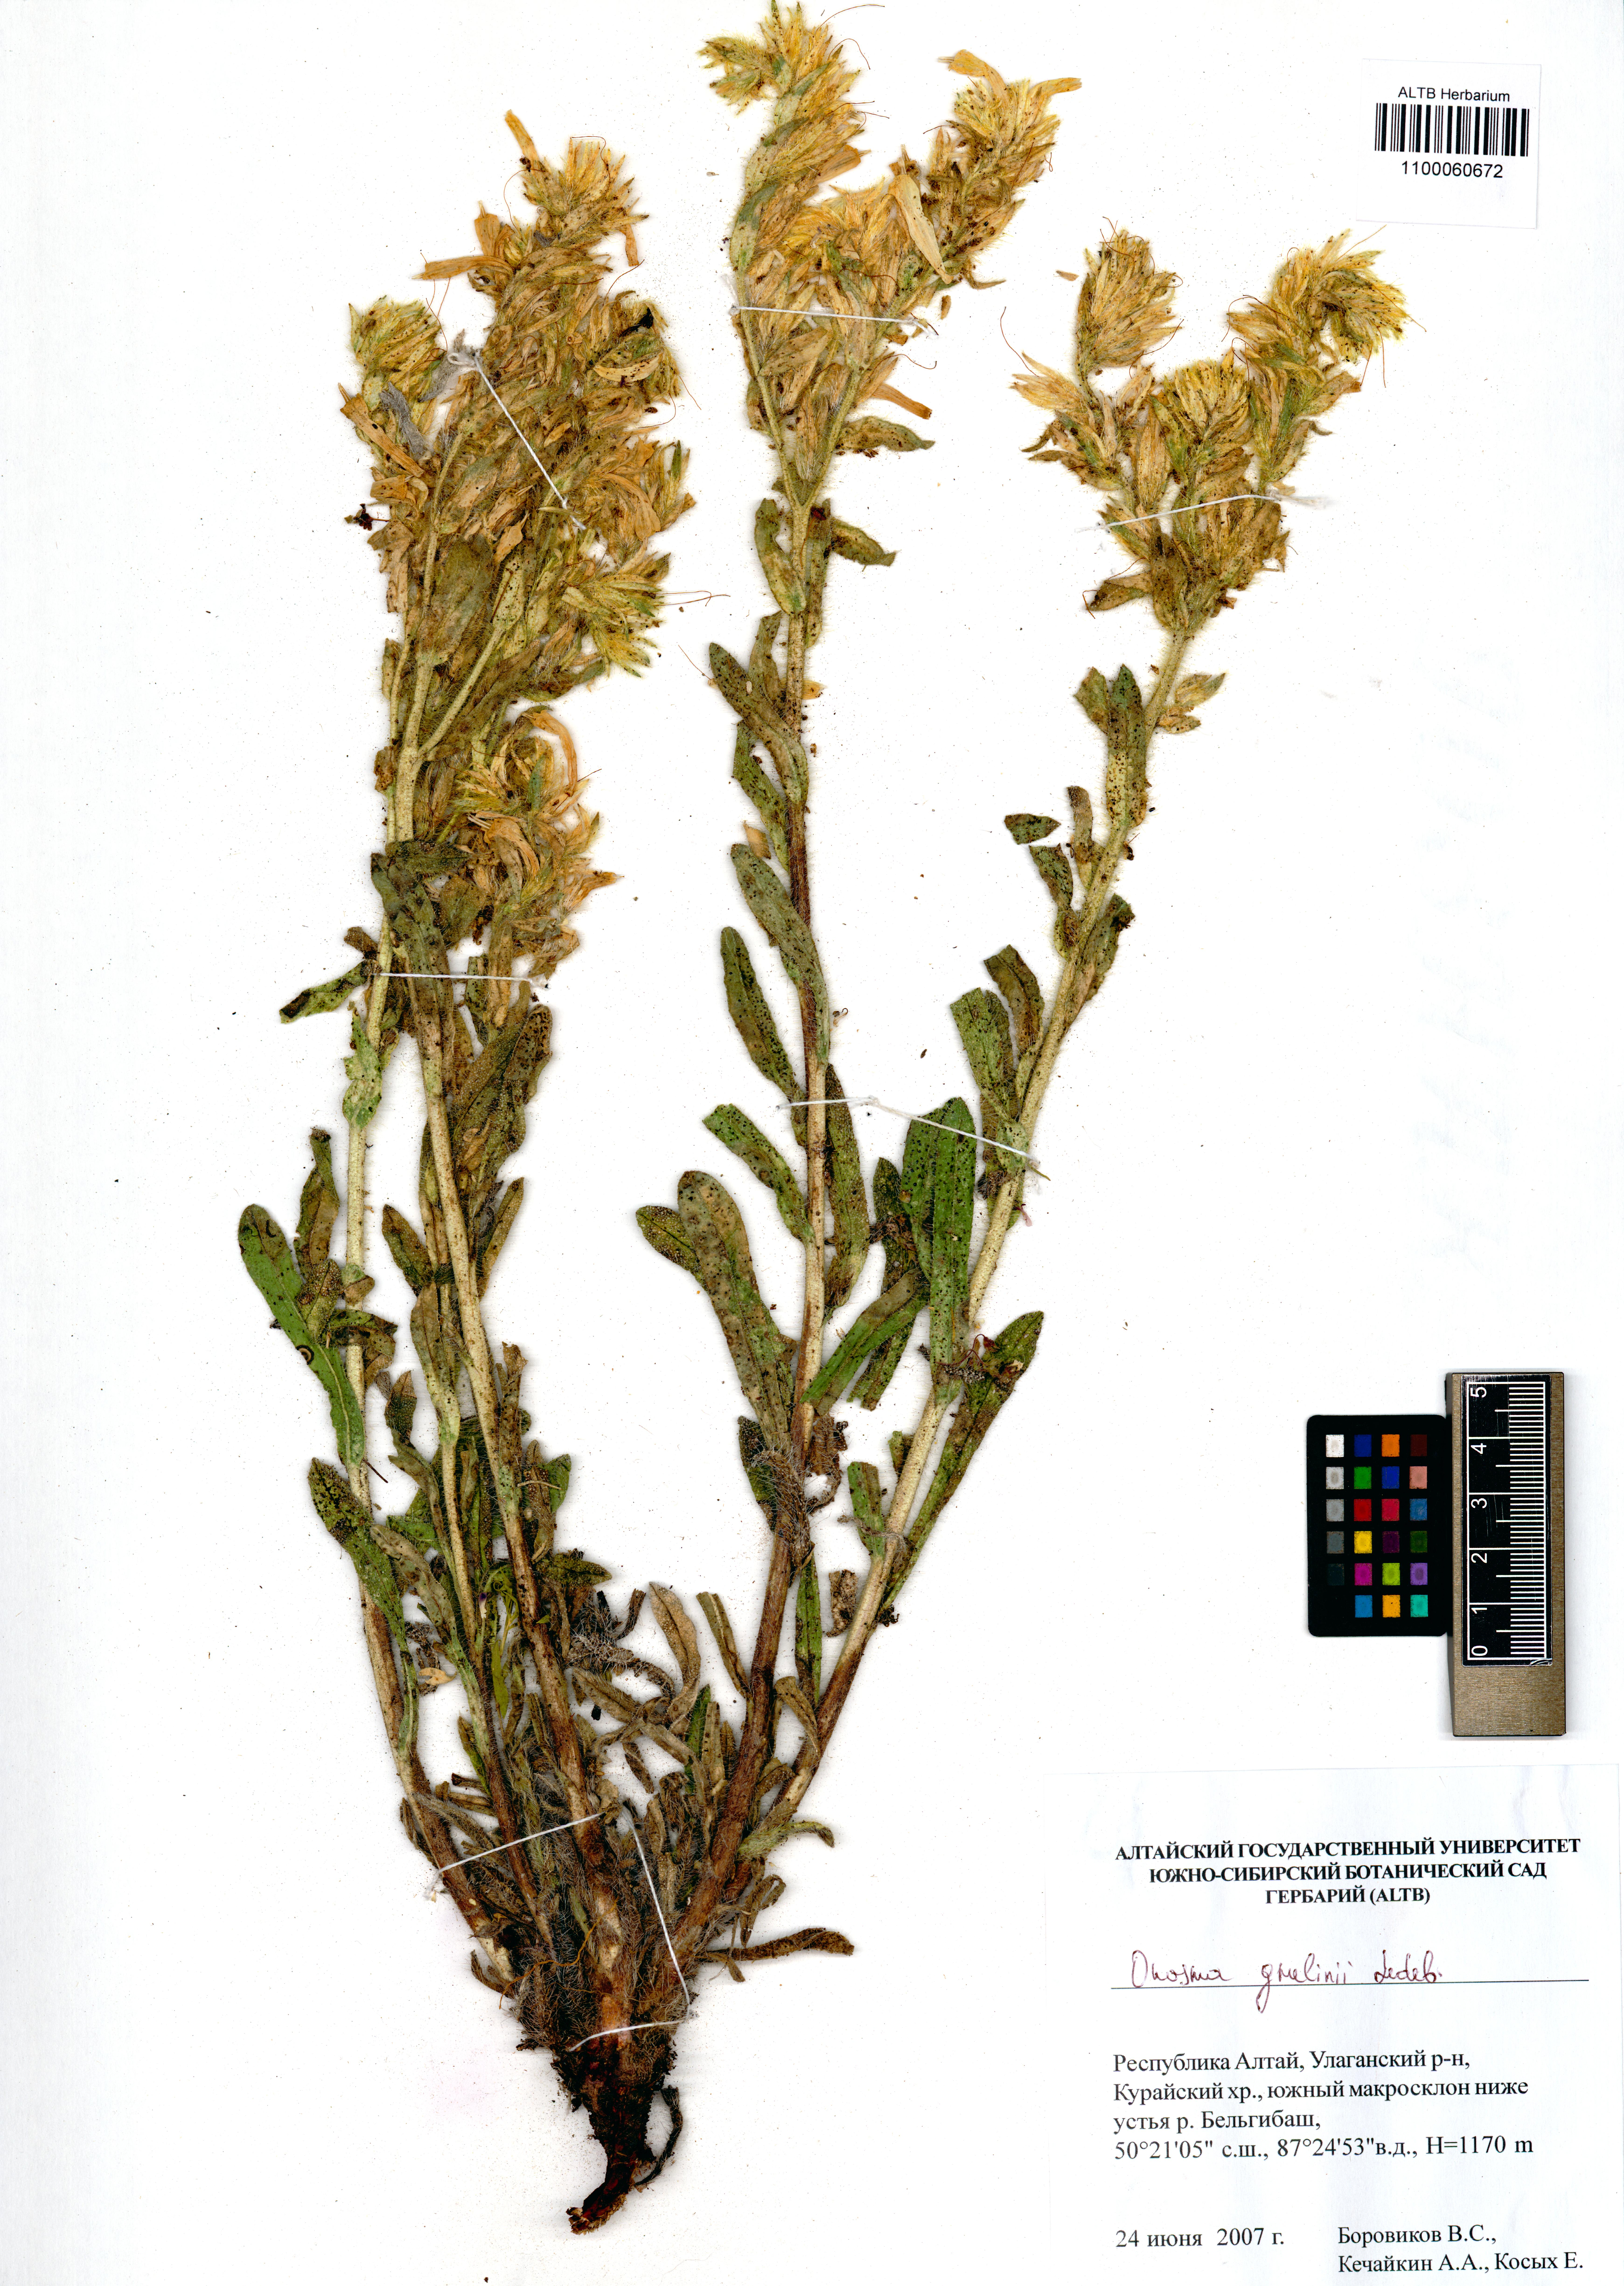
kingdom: Plantae
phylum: Tracheophyta
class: Magnoliopsida
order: Boraginales
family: Boraginaceae
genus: Onosma
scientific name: Onosma gmelinii
